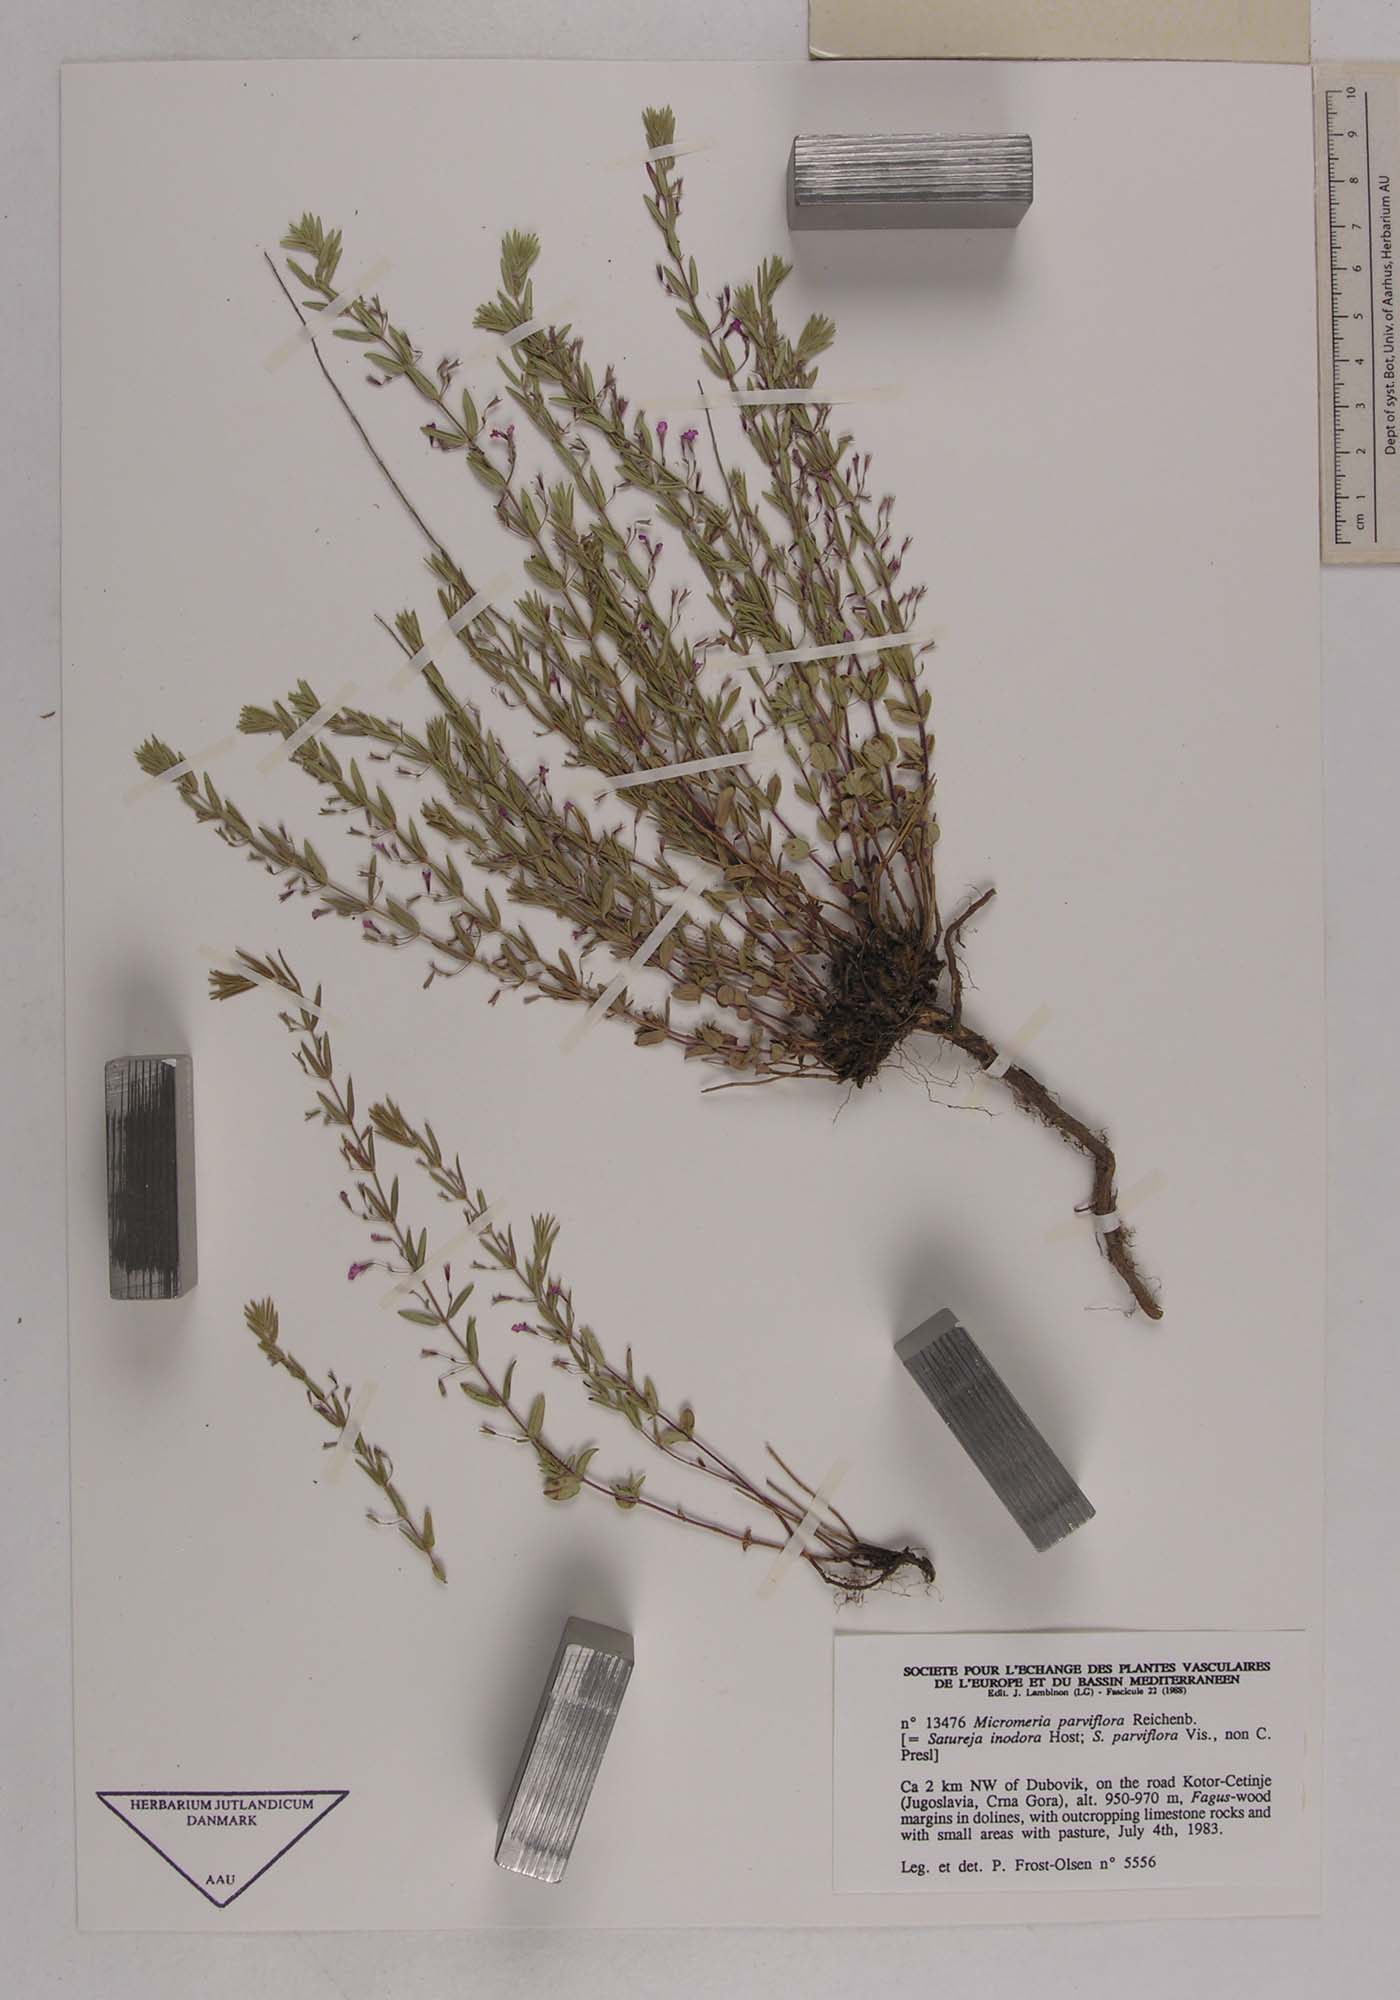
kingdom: Plantae
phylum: Tracheophyta
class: Magnoliopsida
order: Lamiales
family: Lamiaceae
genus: Micromeria
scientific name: Micromeria longipedunculata
